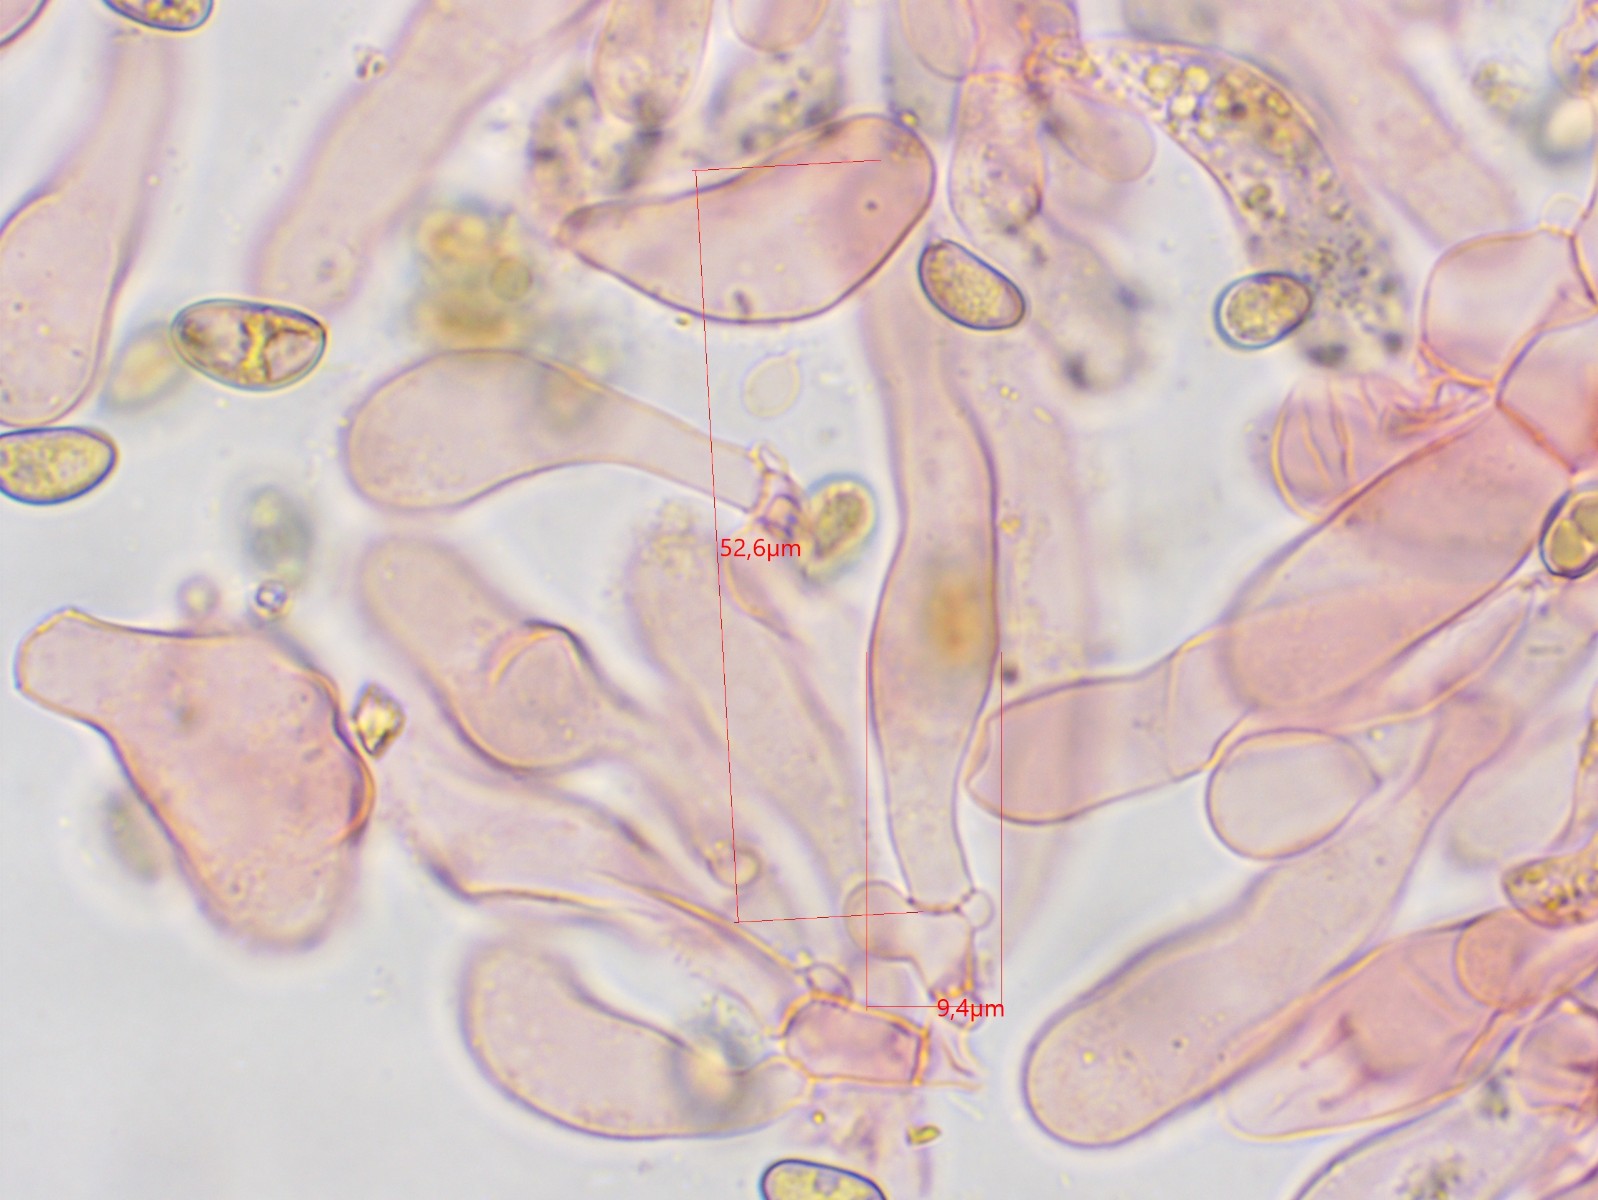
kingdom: Fungi
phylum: Basidiomycota
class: Agaricomycetes
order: Agaricales
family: Inocybaceae
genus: Inosperma
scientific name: Inosperma rhodiolum
